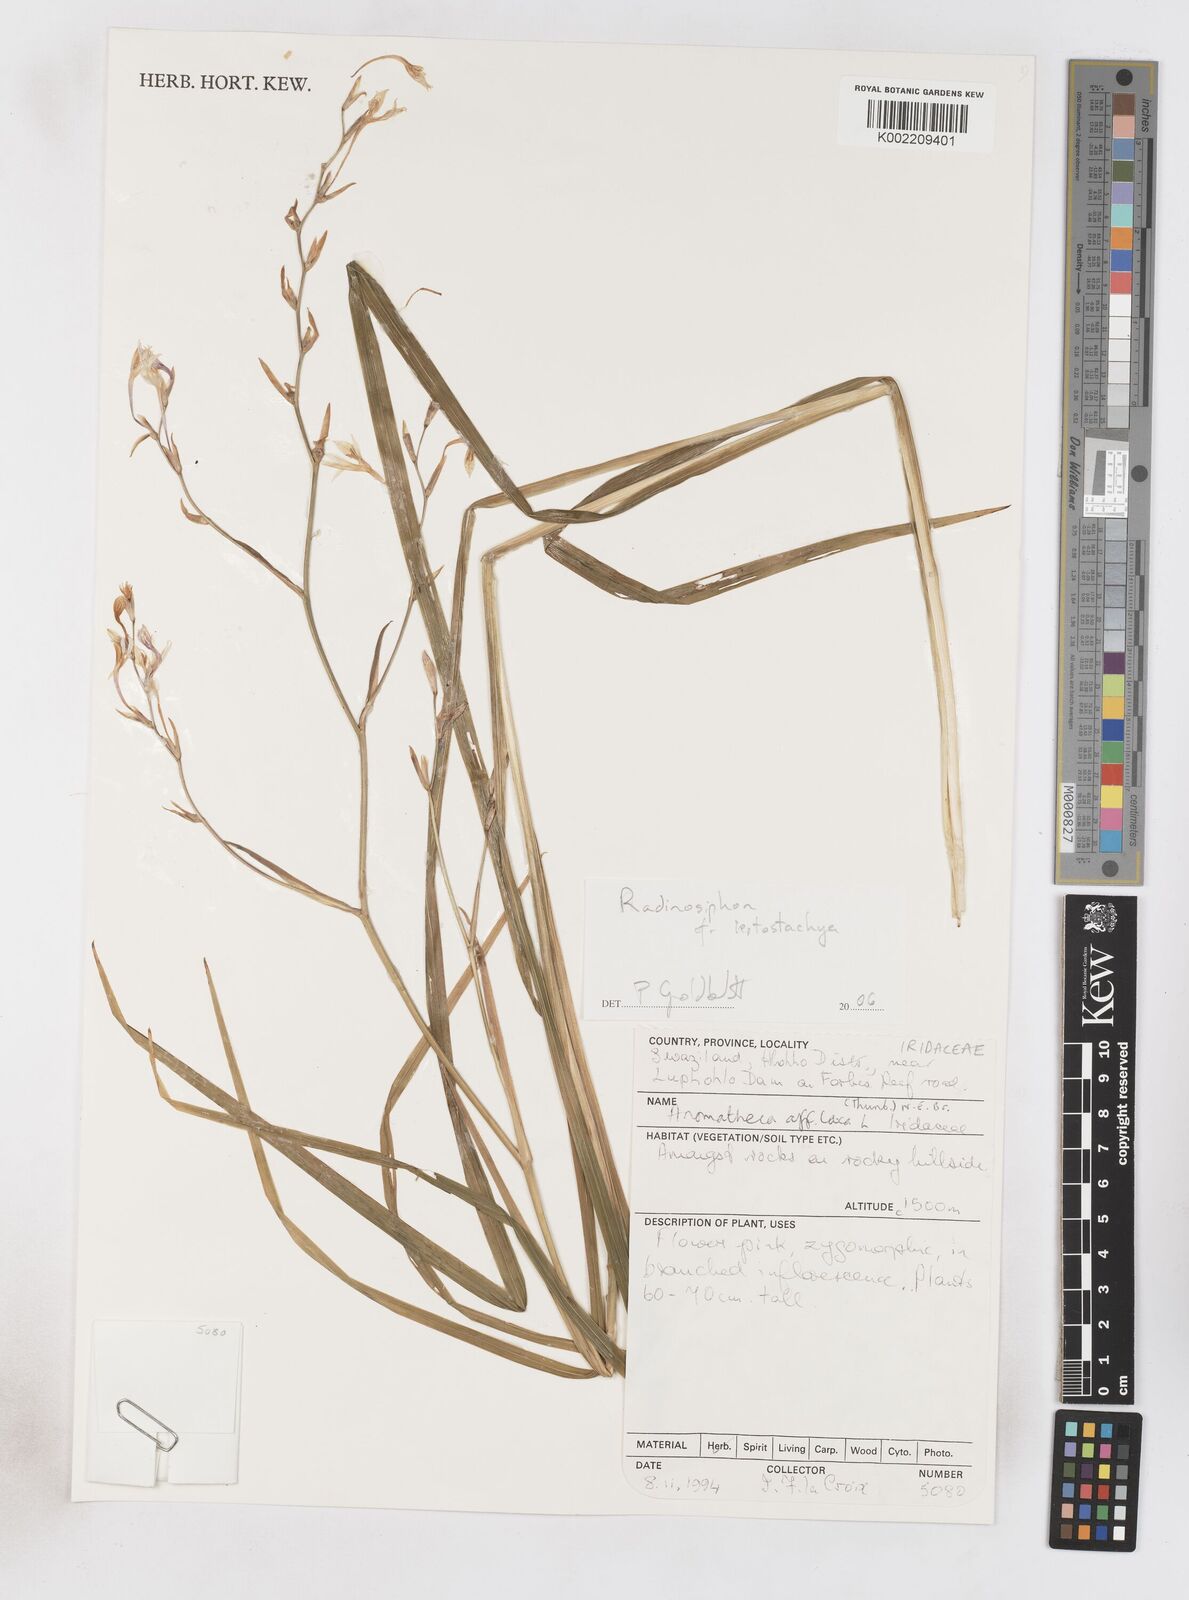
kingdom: Plantae
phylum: Tracheophyta
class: Liliopsida
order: Asparagales
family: Iridaceae
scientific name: Iridaceae
